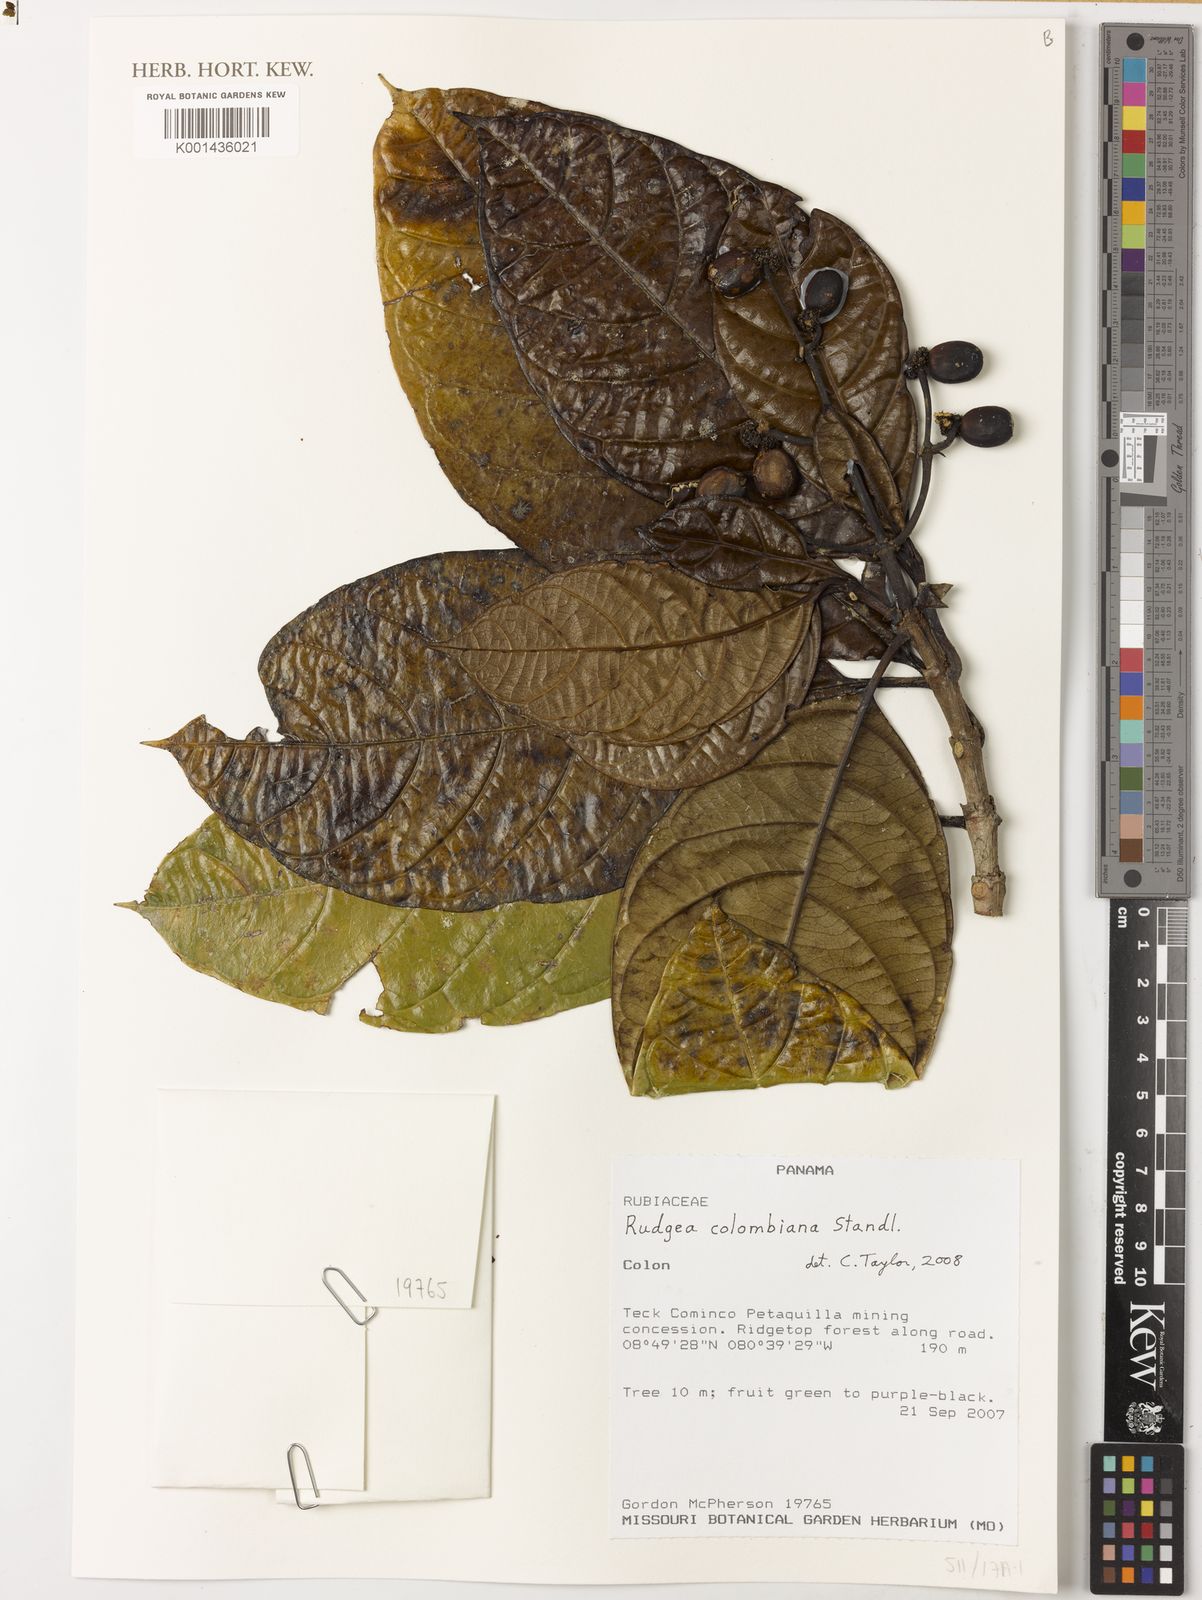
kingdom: Plantae
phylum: Tracheophyta
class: Magnoliopsida
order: Gentianales
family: Rubiaceae
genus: Rudgea
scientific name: Rudgea colombiana
